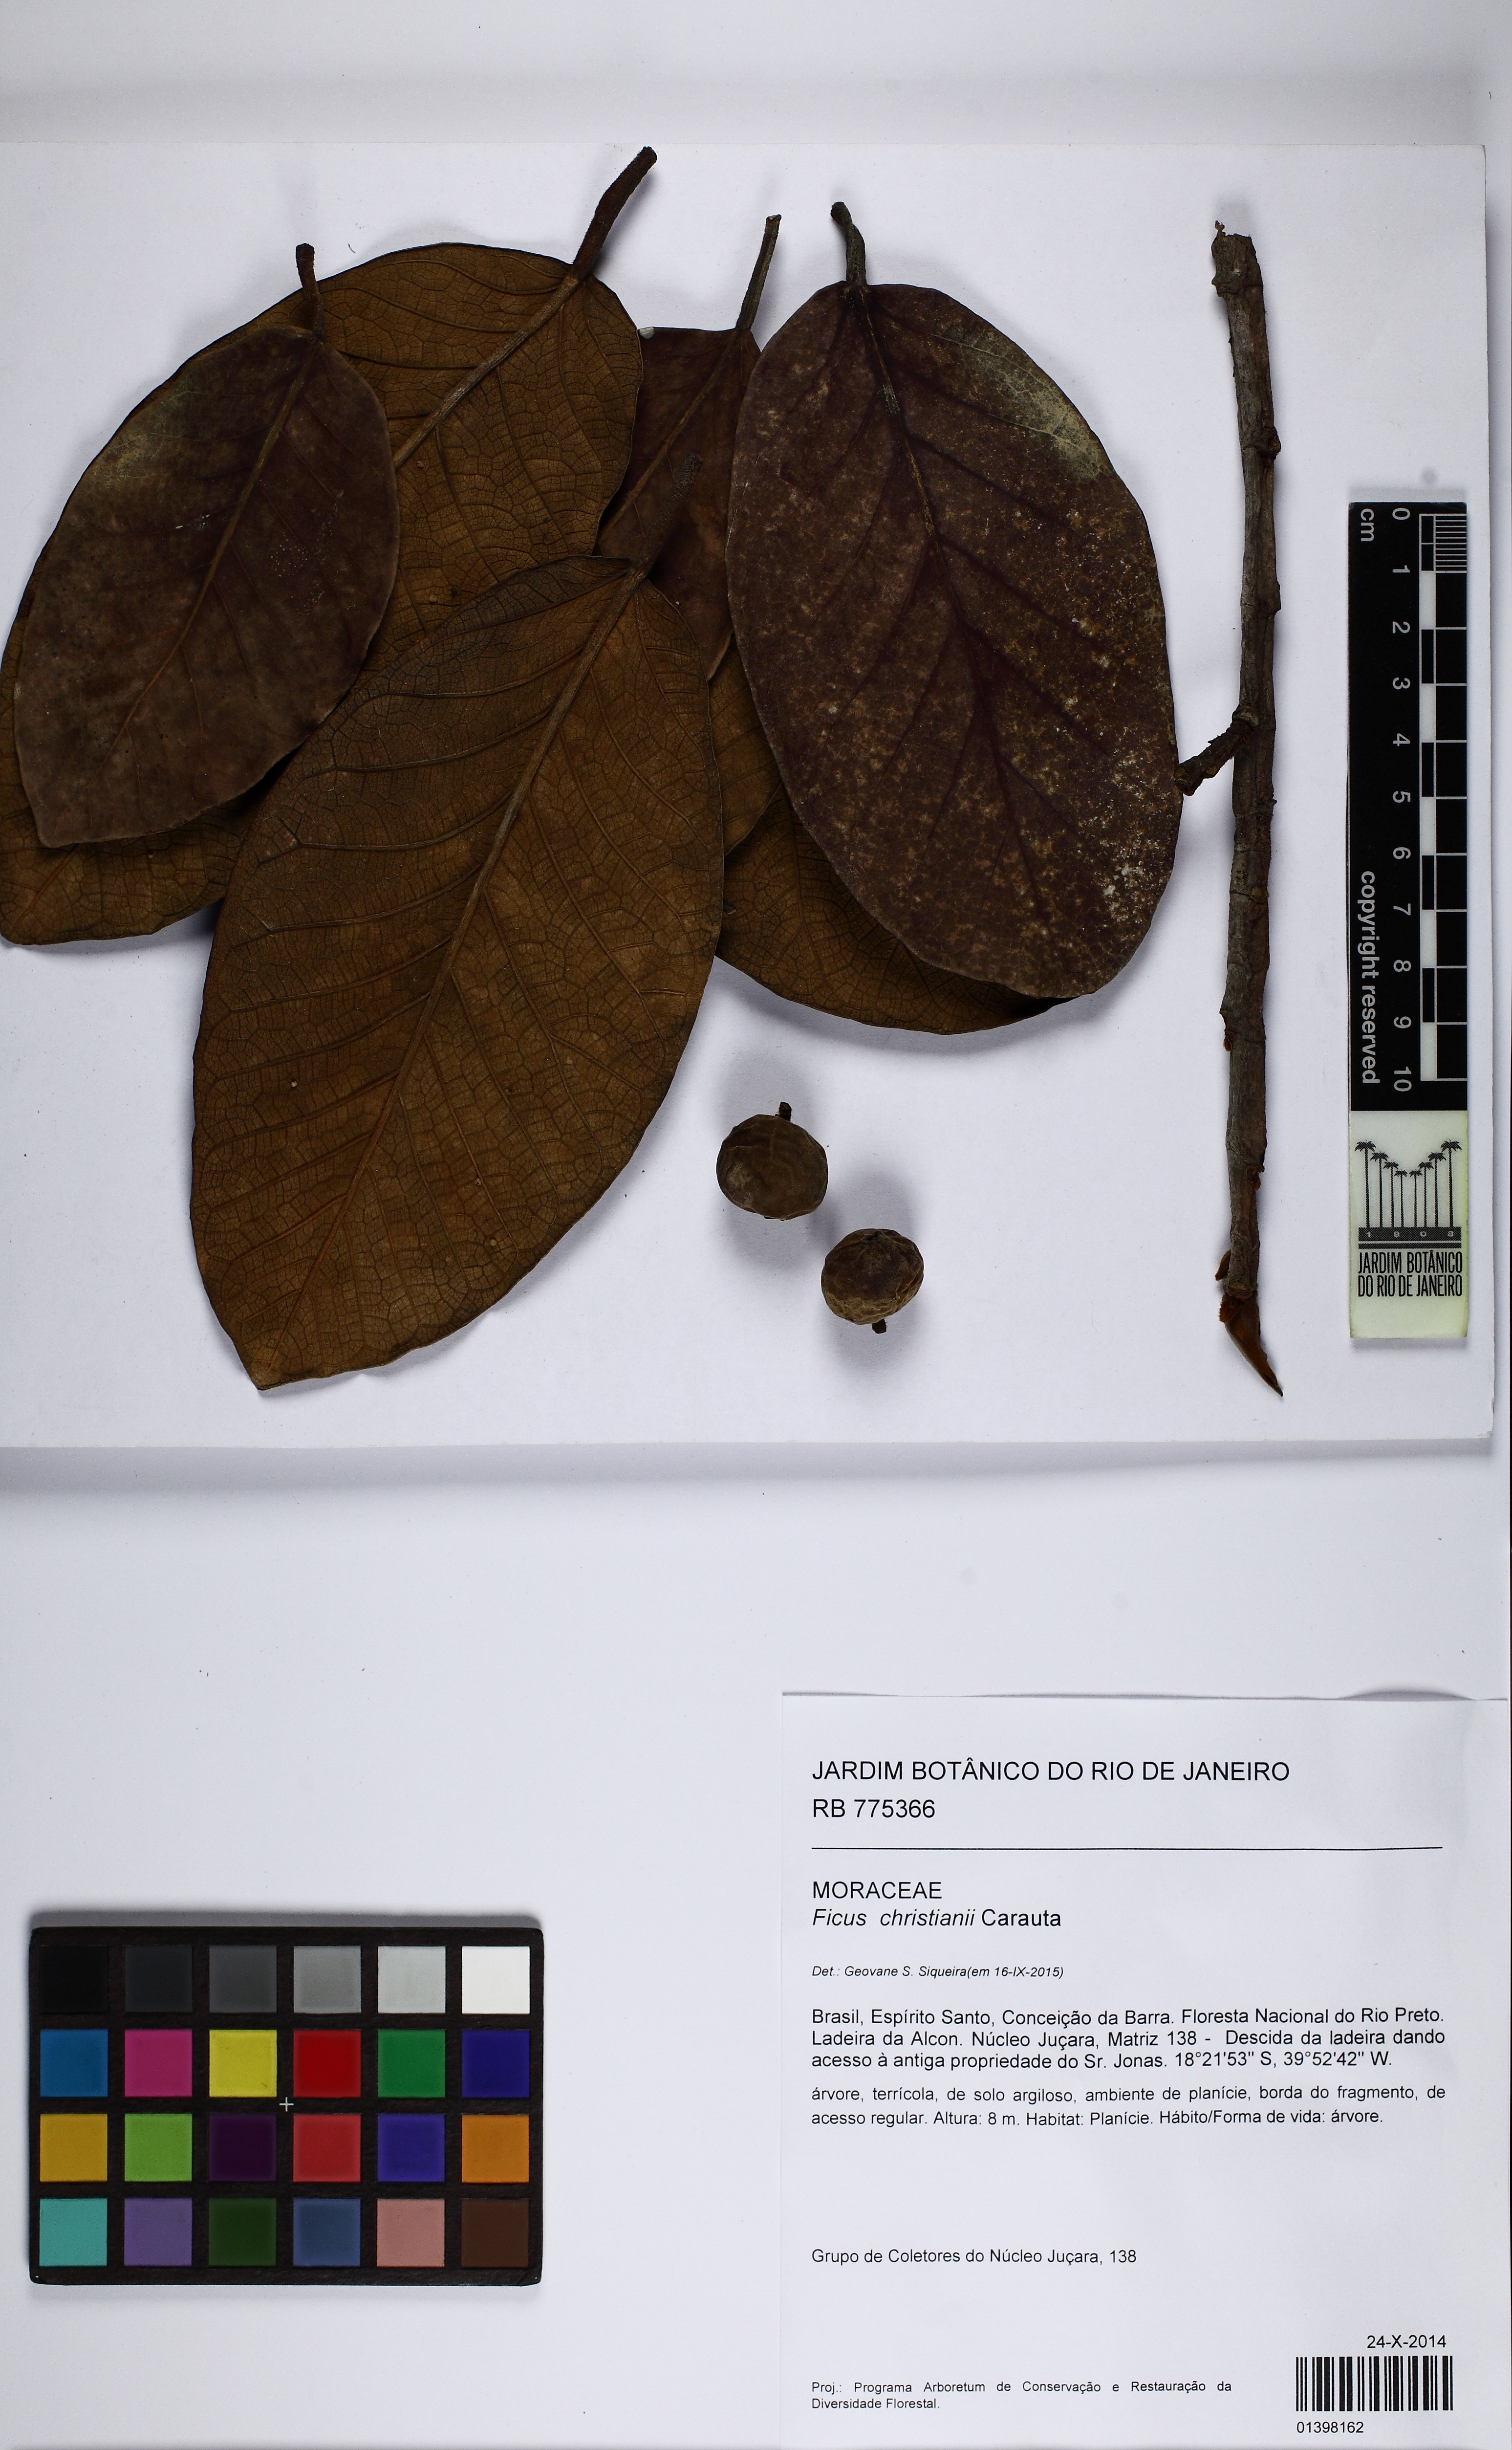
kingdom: Plantae
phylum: Tracheophyta
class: Magnoliopsida
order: Rosales
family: Moraceae
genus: Ficus
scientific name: Ficus gomelleira
